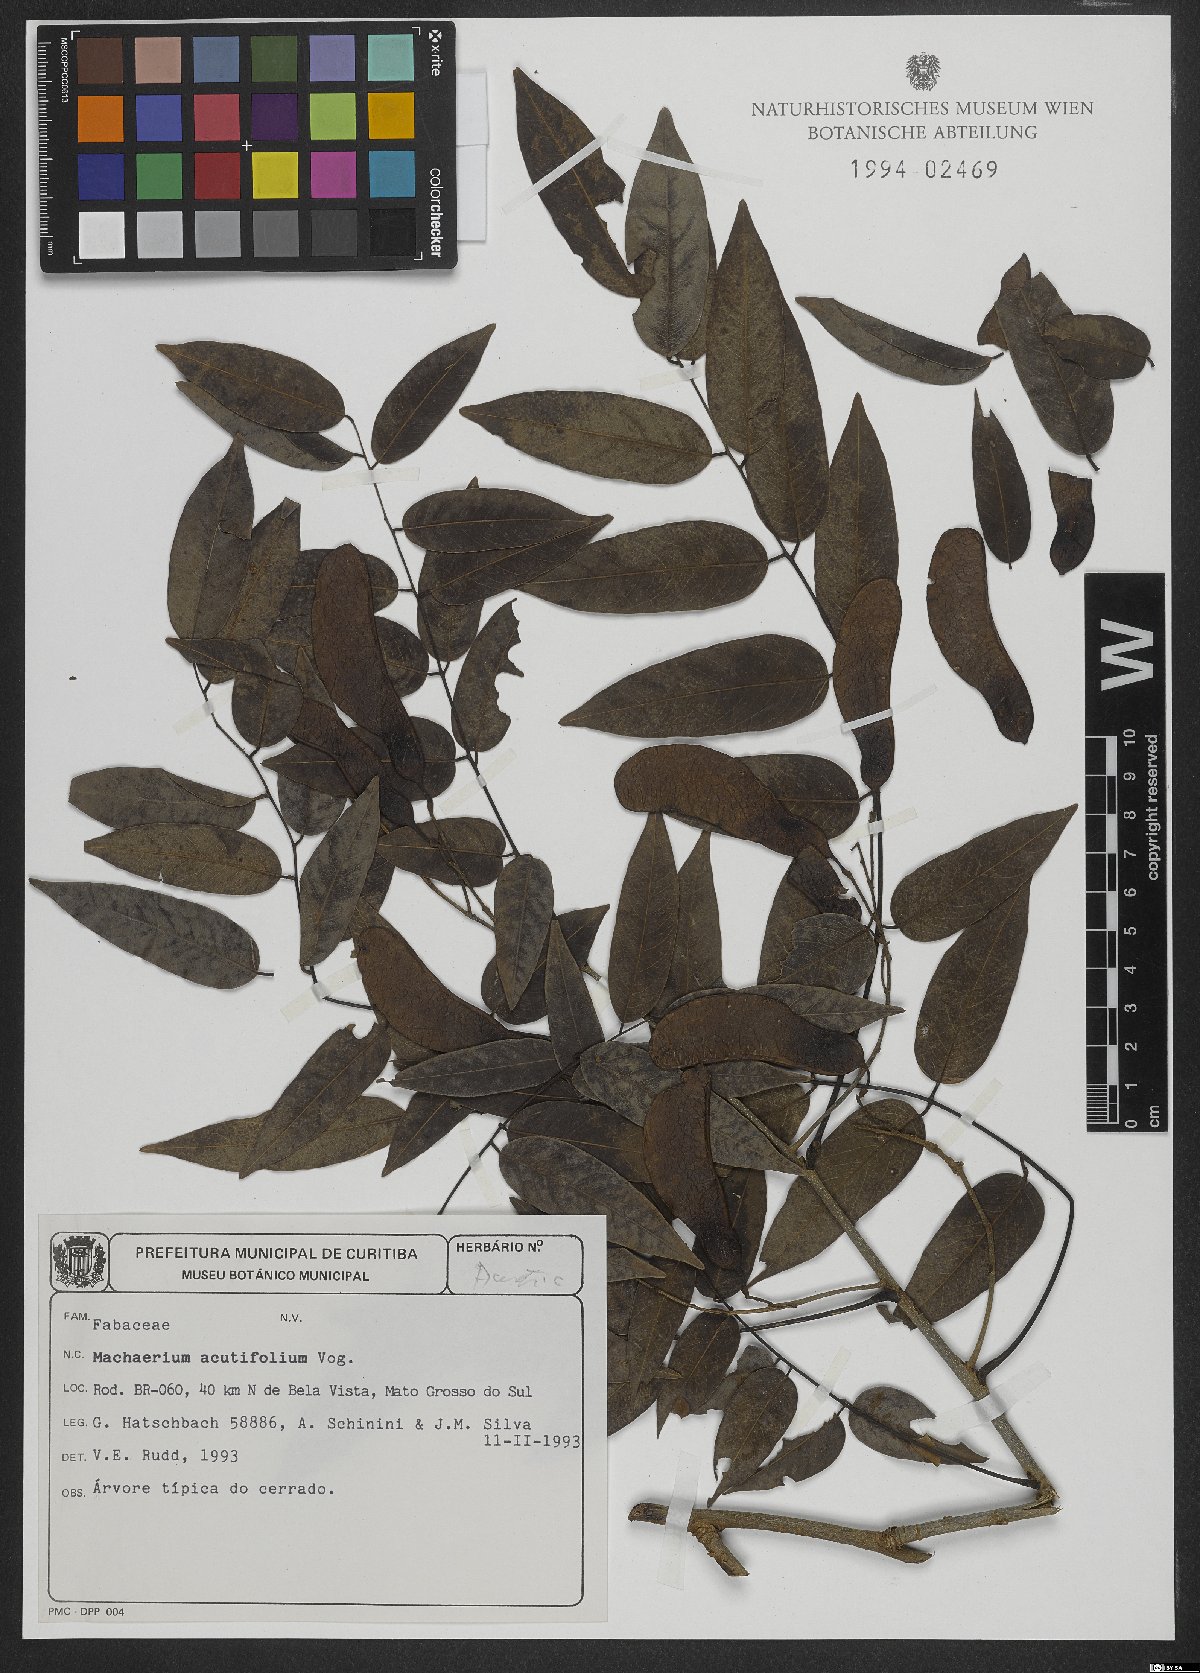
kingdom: Plantae
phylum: Tracheophyta
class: Magnoliopsida
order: Fabales
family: Fabaceae
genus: Machaerium
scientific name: Machaerium acutifolium
